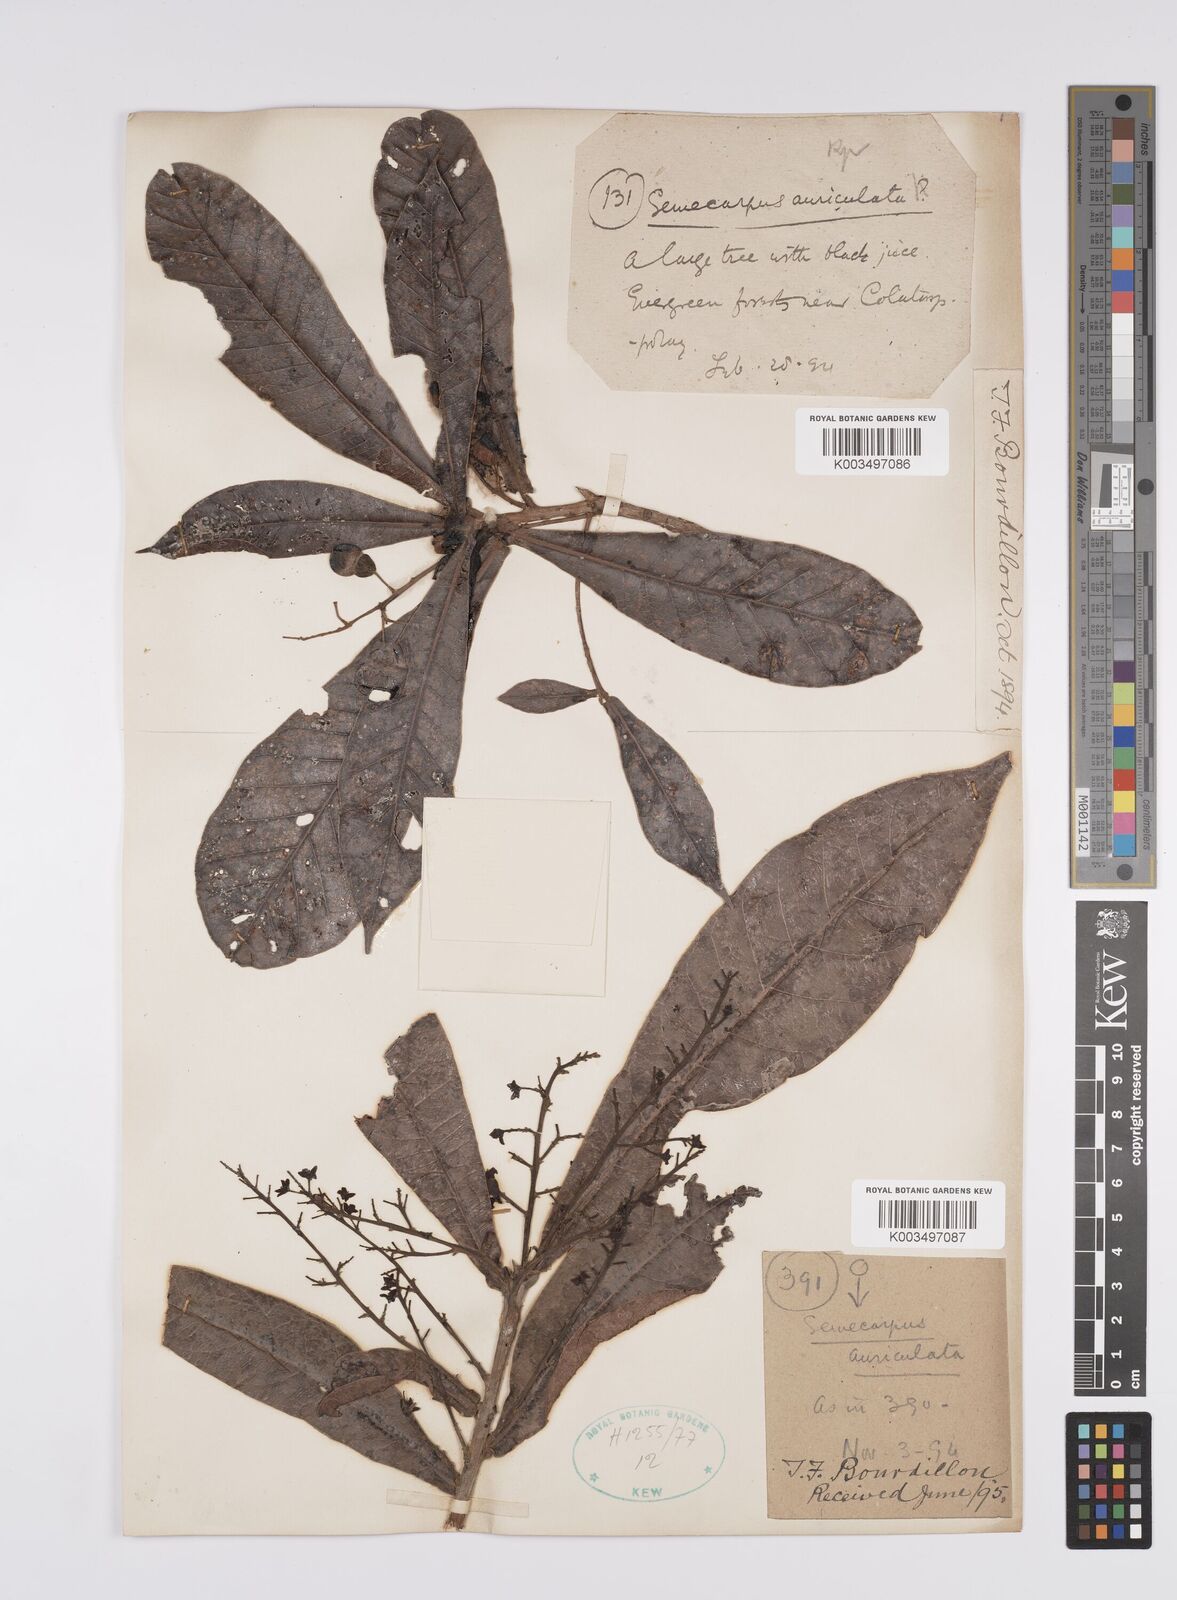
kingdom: Plantae
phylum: Tracheophyta
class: Magnoliopsida
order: Sapindales
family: Anacardiaceae
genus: Semecarpus
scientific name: Semecarpus auriculatus
